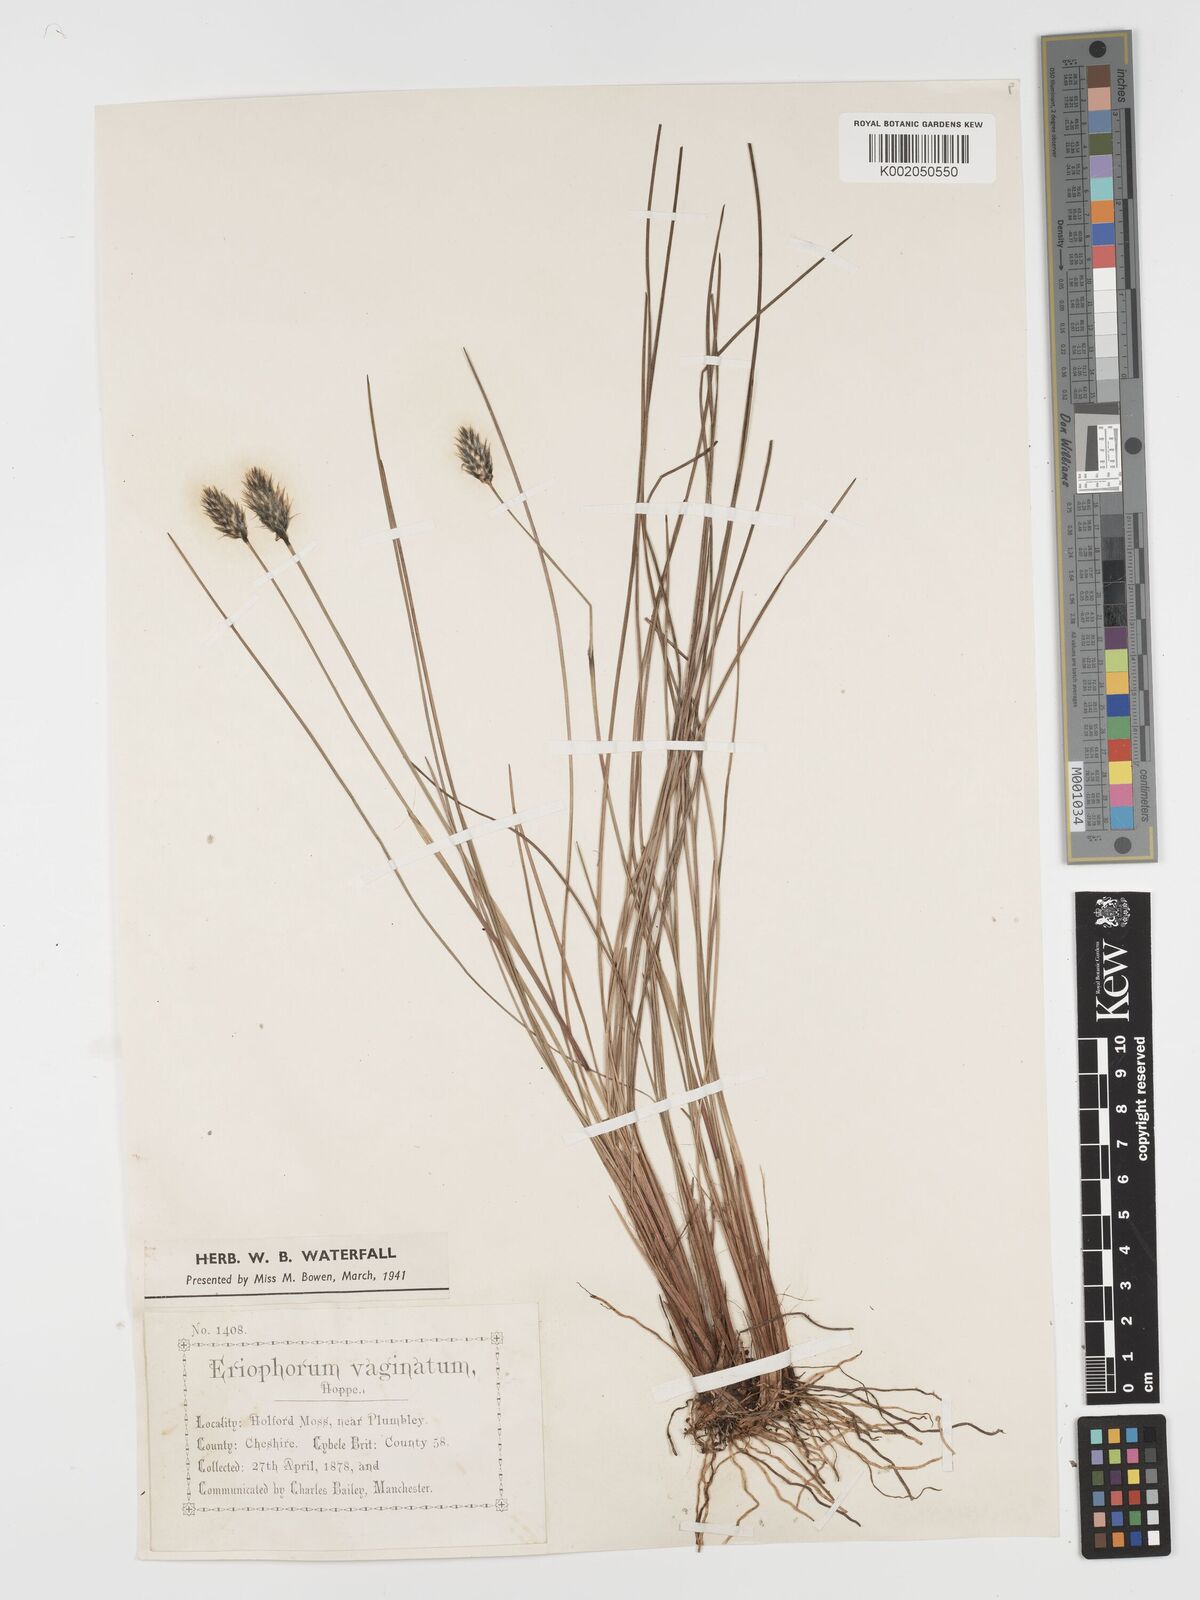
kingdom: Plantae
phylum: Tracheophyta
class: Liliopsida
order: Poales
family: Cyperaceae
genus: Eriophorum
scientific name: Eriophorum vaginatum
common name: Hare's-tail cottongrass
